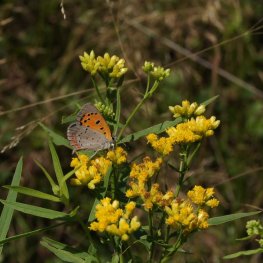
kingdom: Animalia
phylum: Arthropoda
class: Insecta
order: Lepidoptera
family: Lycaenidae
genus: Lycaena
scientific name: Lycaena phlaeas
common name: American Copper
